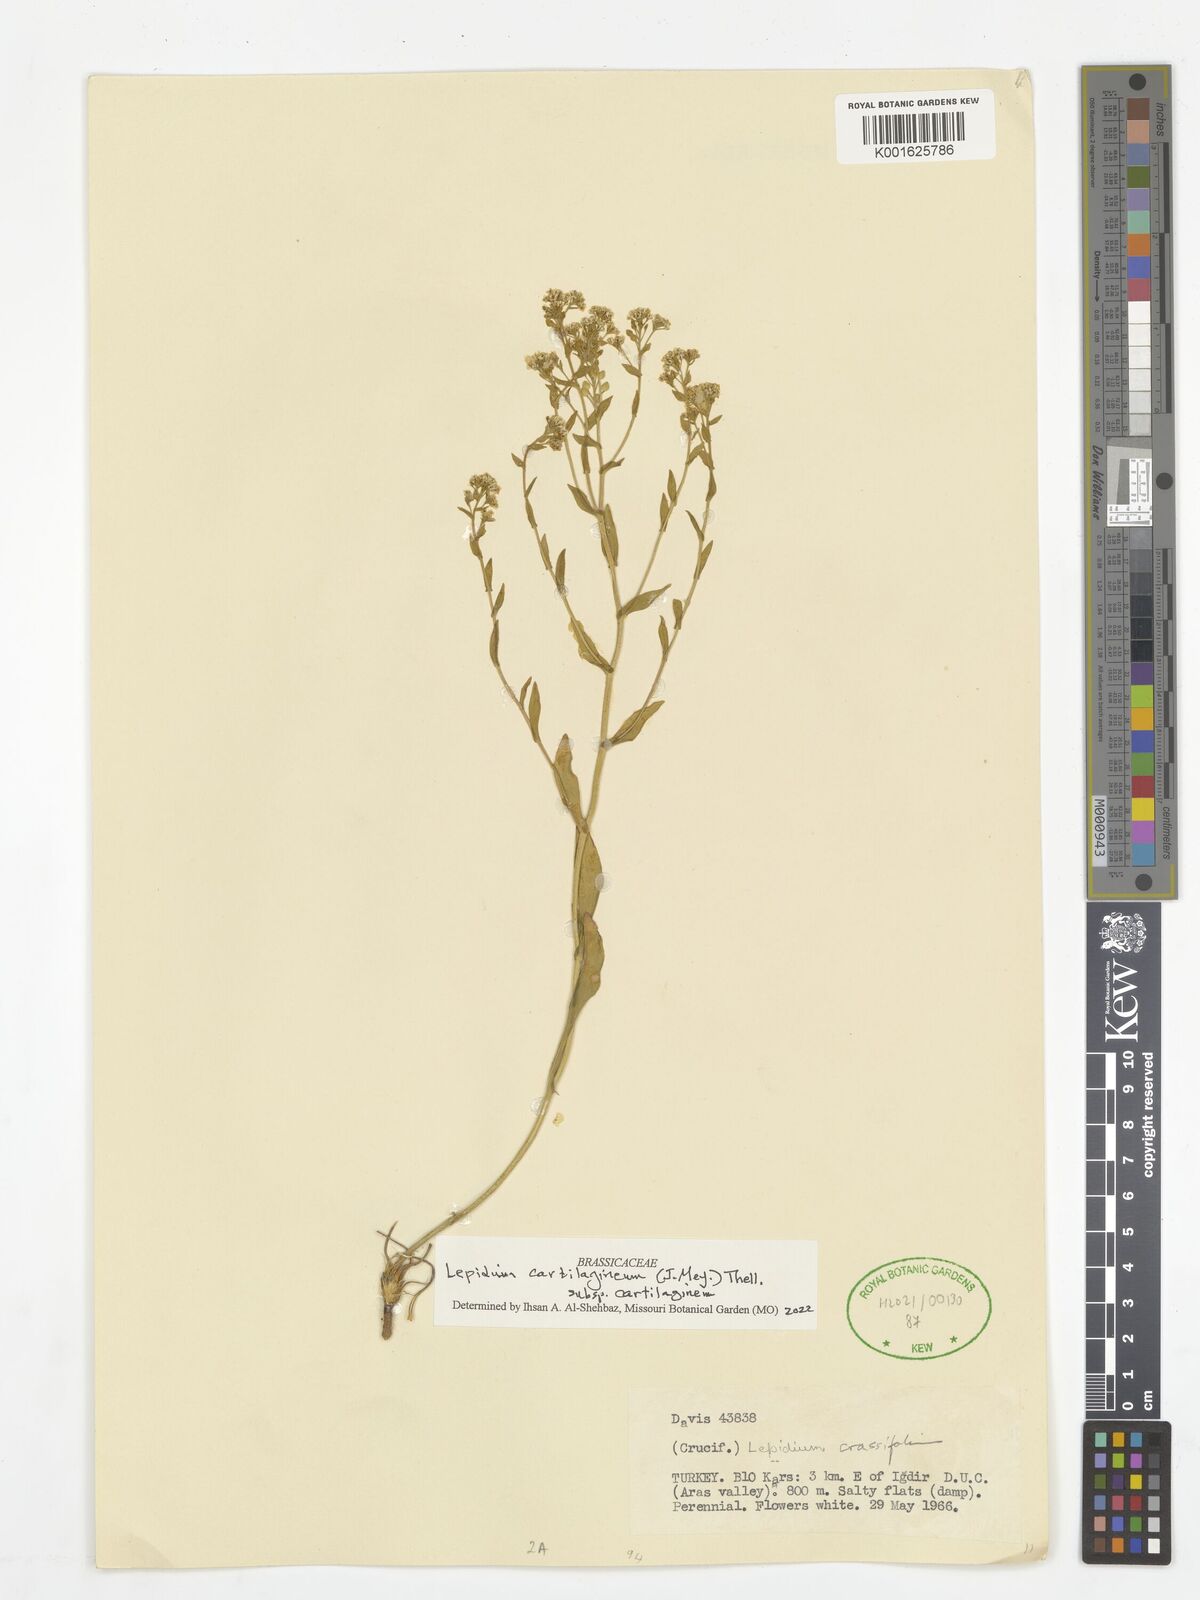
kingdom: Plantae
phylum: Tracheophyta
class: Magnoliopsida
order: Brassicales
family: Brassicaceae
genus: Lepidium
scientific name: Lepidium cartilagineum
